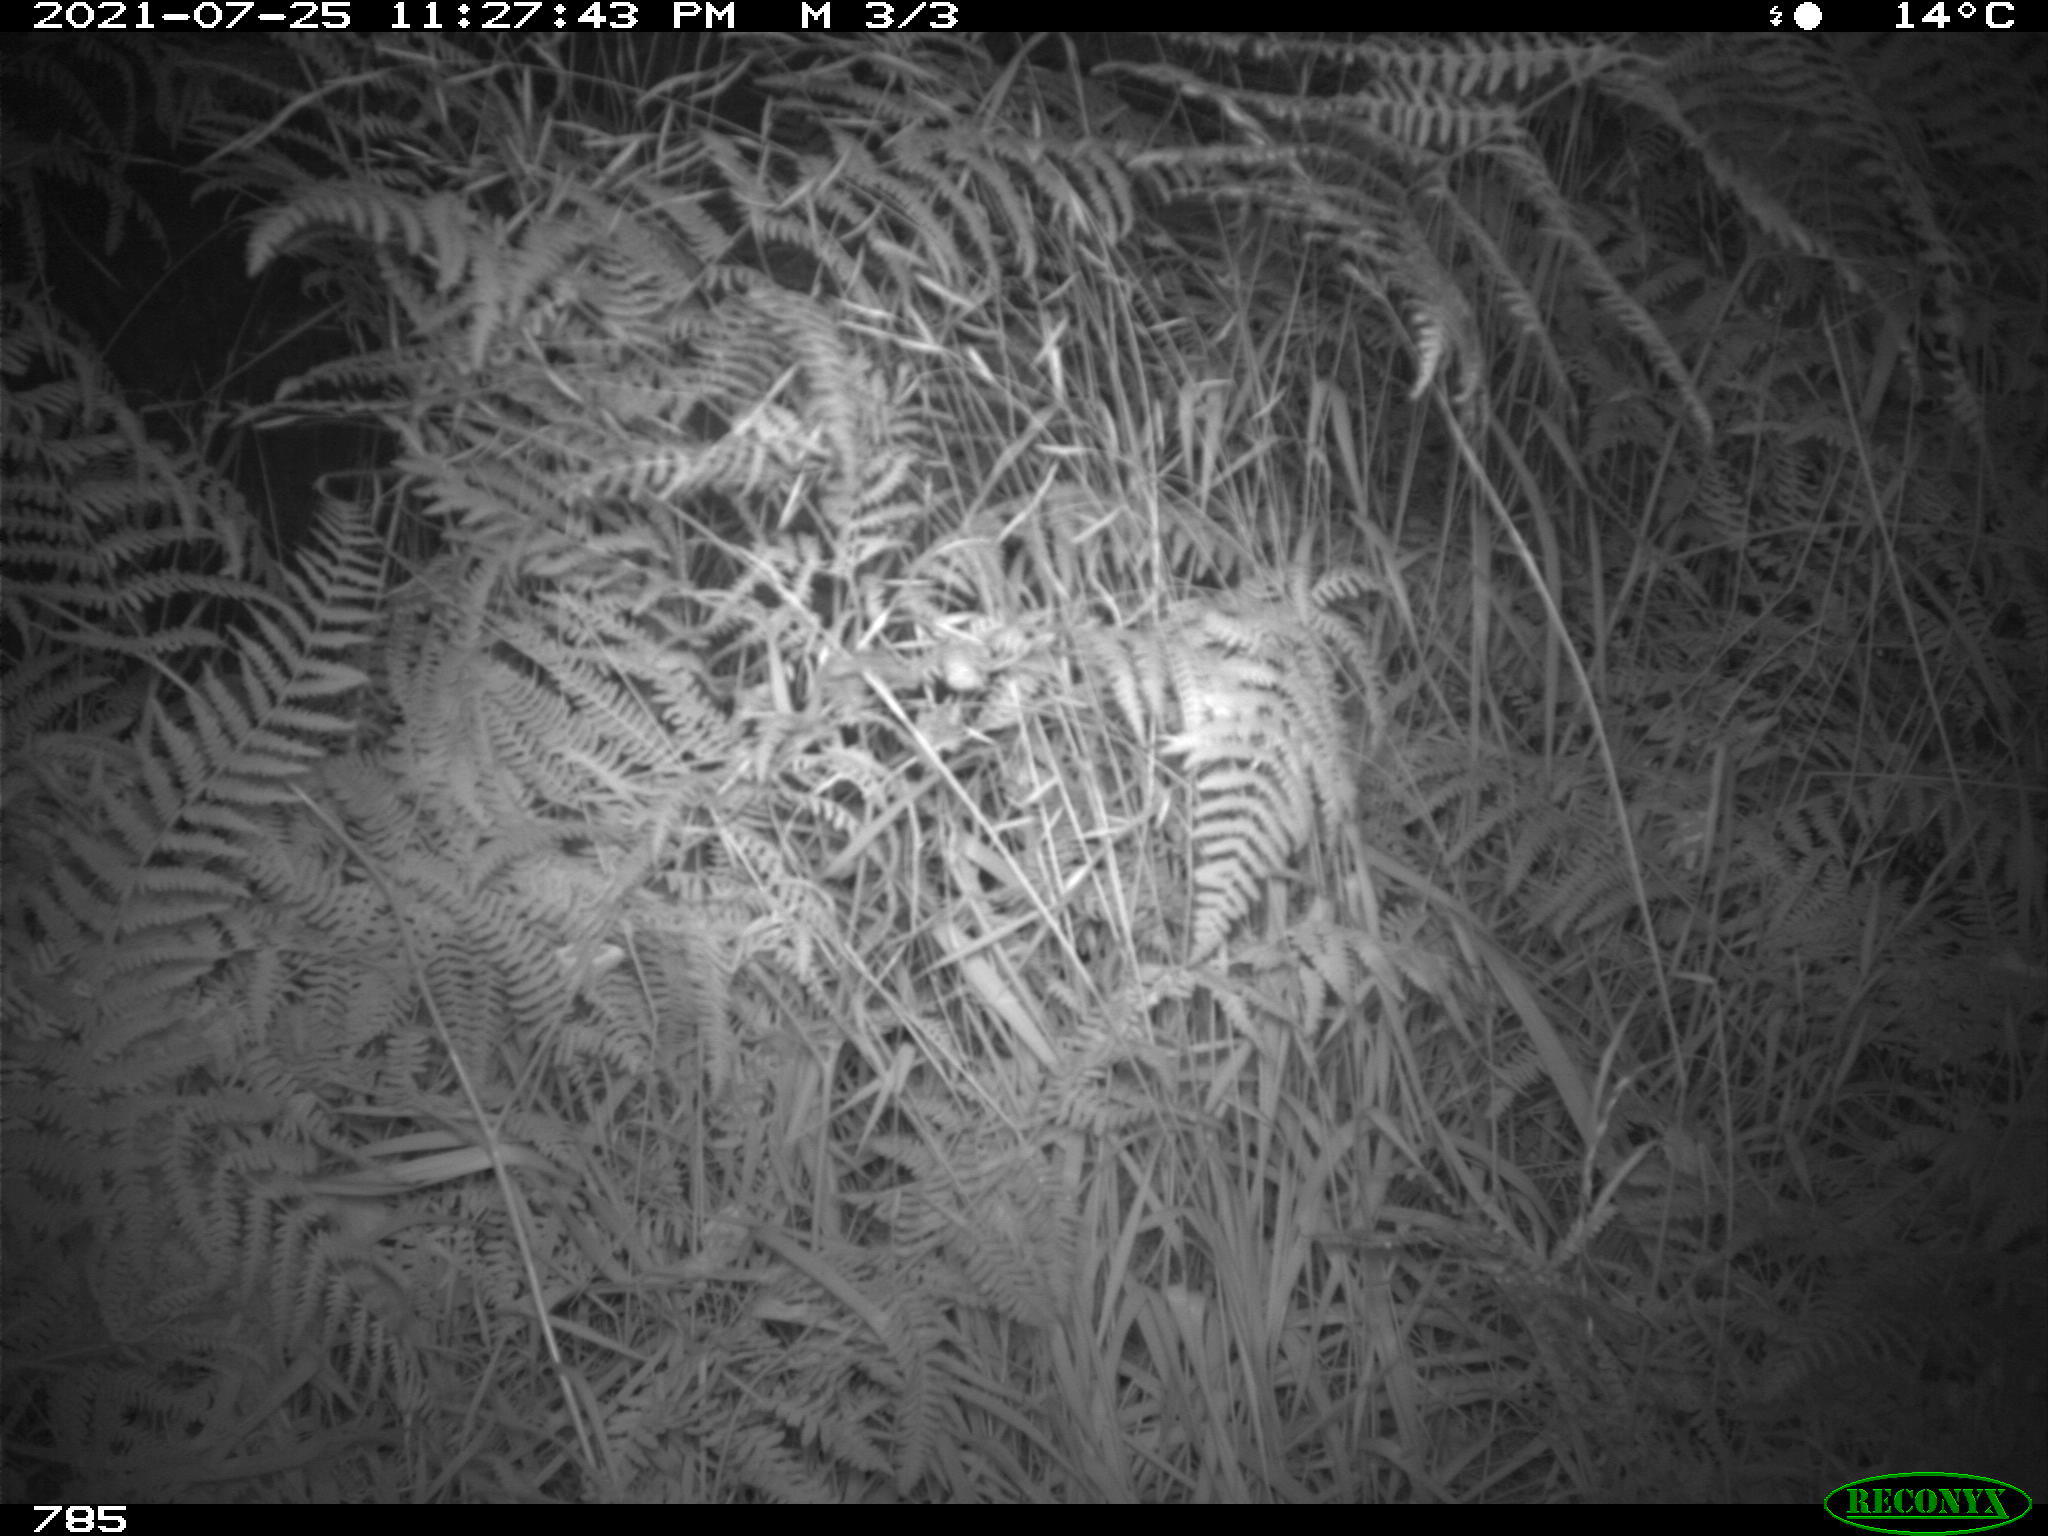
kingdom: Animalia
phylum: Chordata
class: Mammalia
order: Artiodactyla
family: Cervidae
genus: Capreolus
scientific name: Capreolus capreolus
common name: Western roe deer
